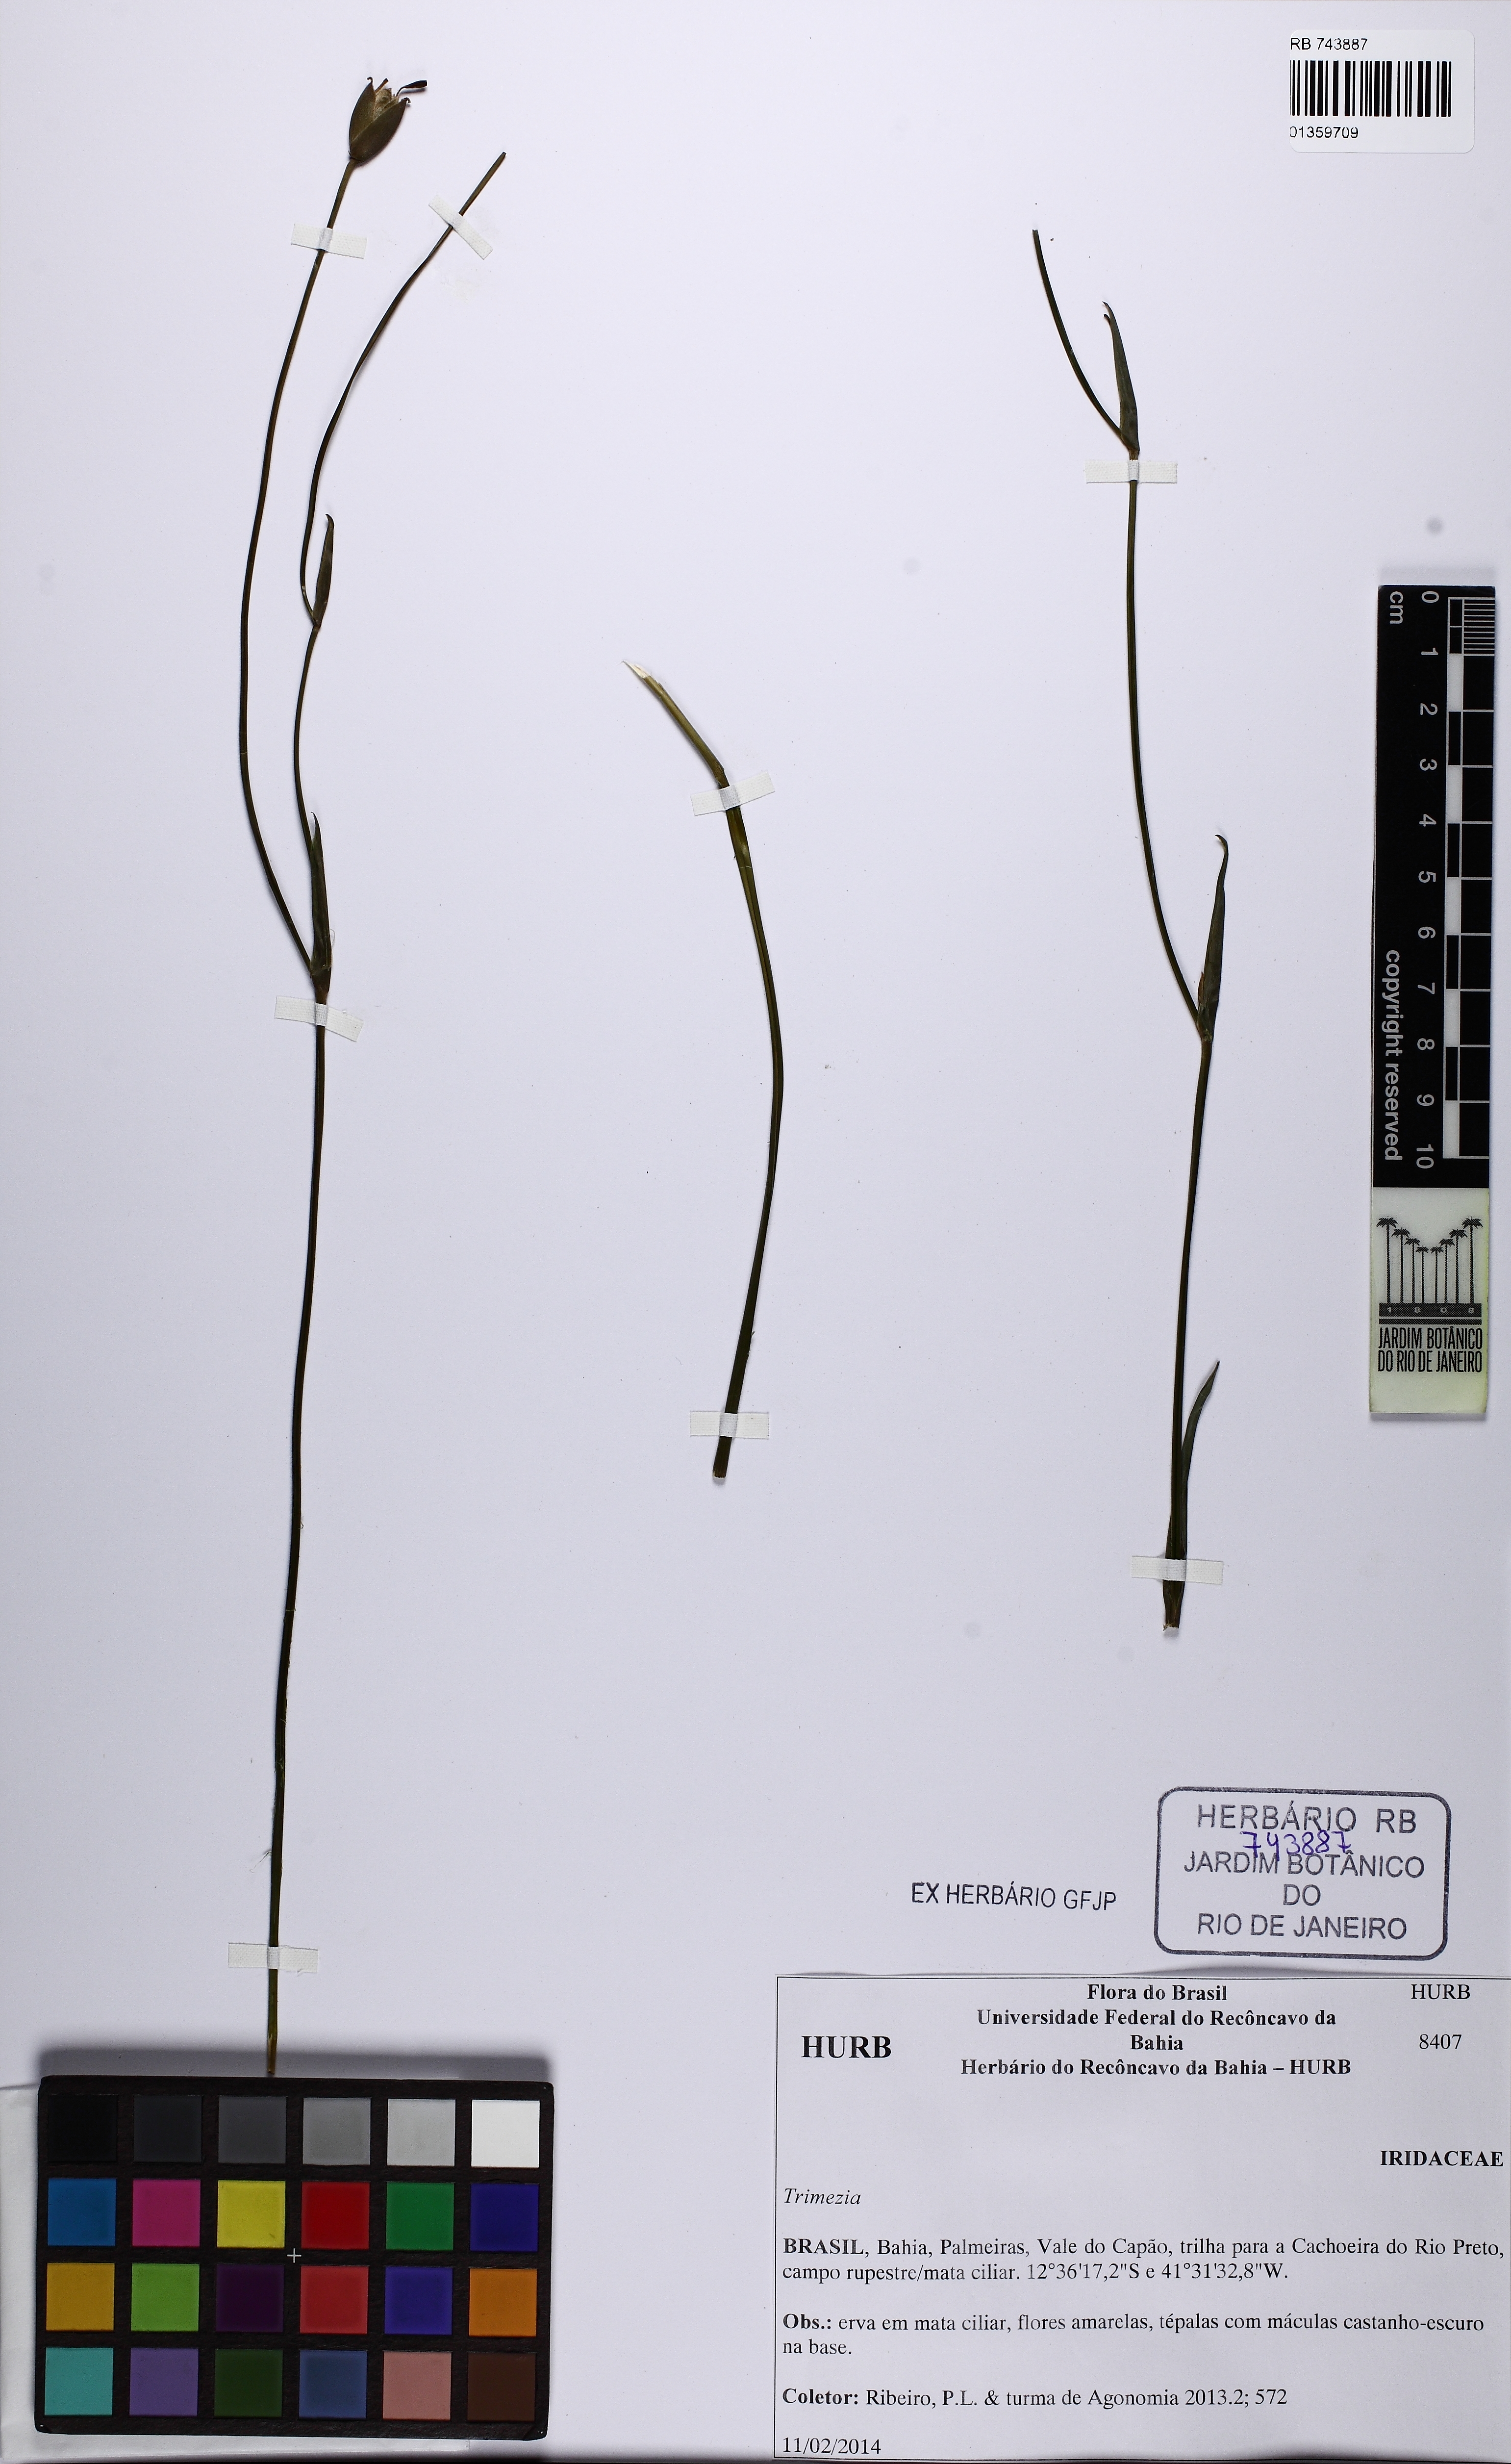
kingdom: Plantae
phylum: Tracheophyta
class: Liliopsida
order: Asparagales
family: Iridaceae
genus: Trimezia
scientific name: Trimezia
